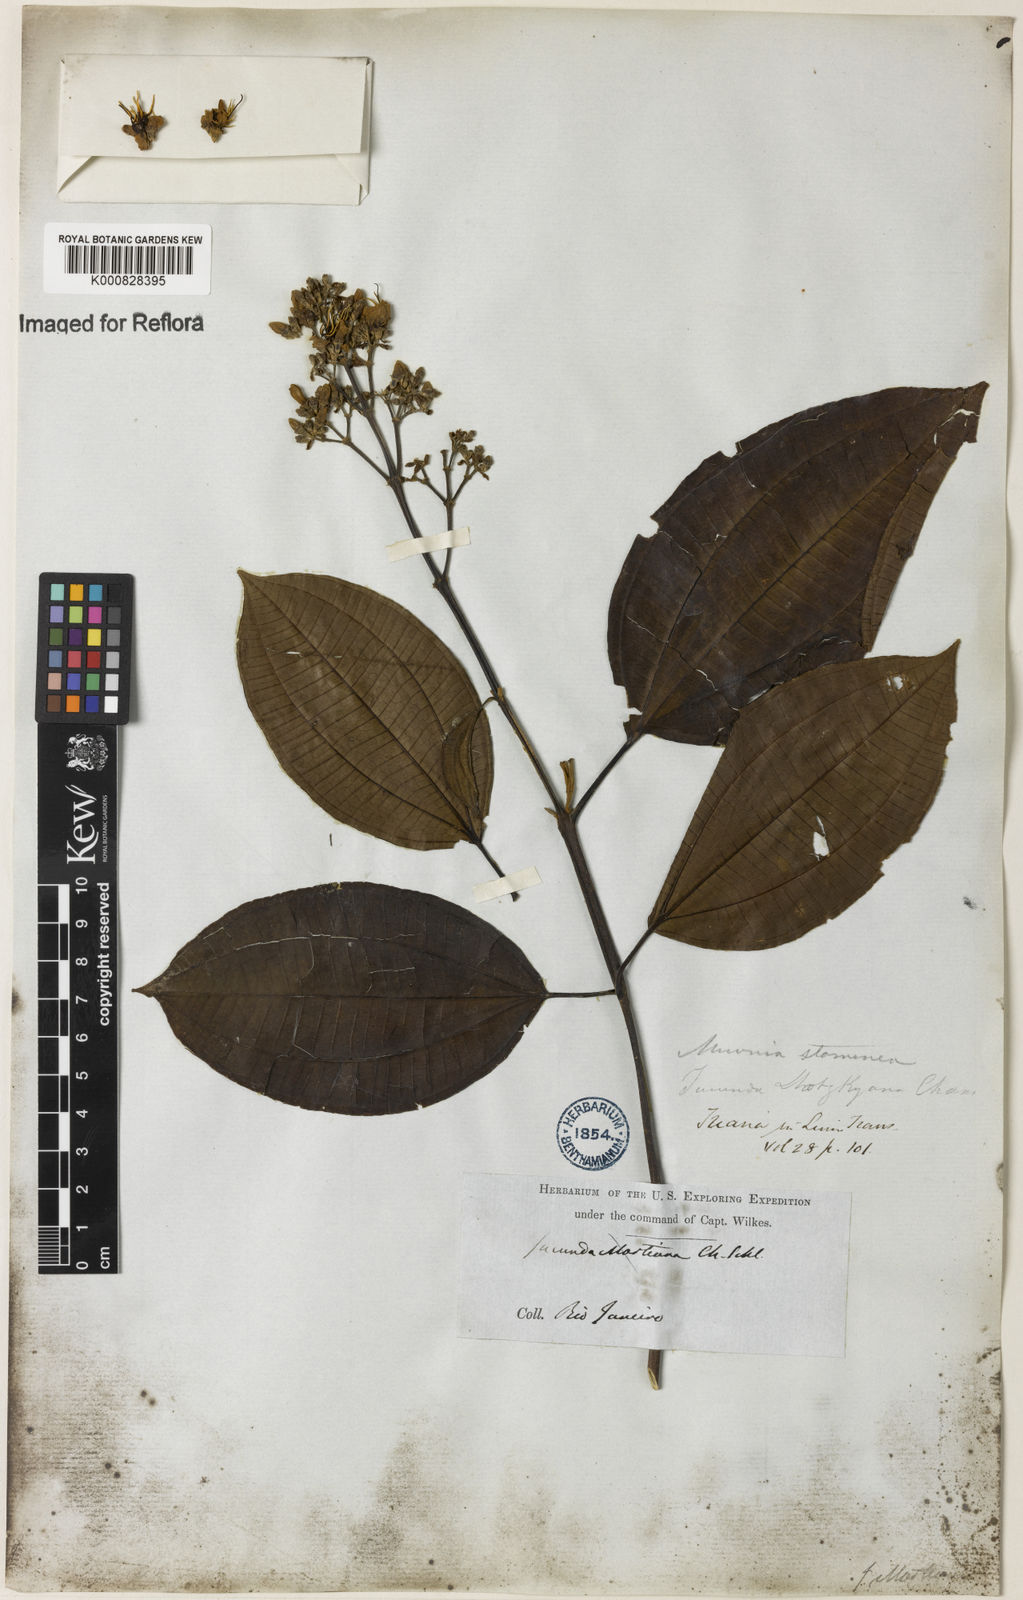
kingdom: Plantae
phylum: Tracheophyta
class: Magnoliopsida
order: Myrtales
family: Melastomataceae
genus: Miconia
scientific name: Miconia staminea
